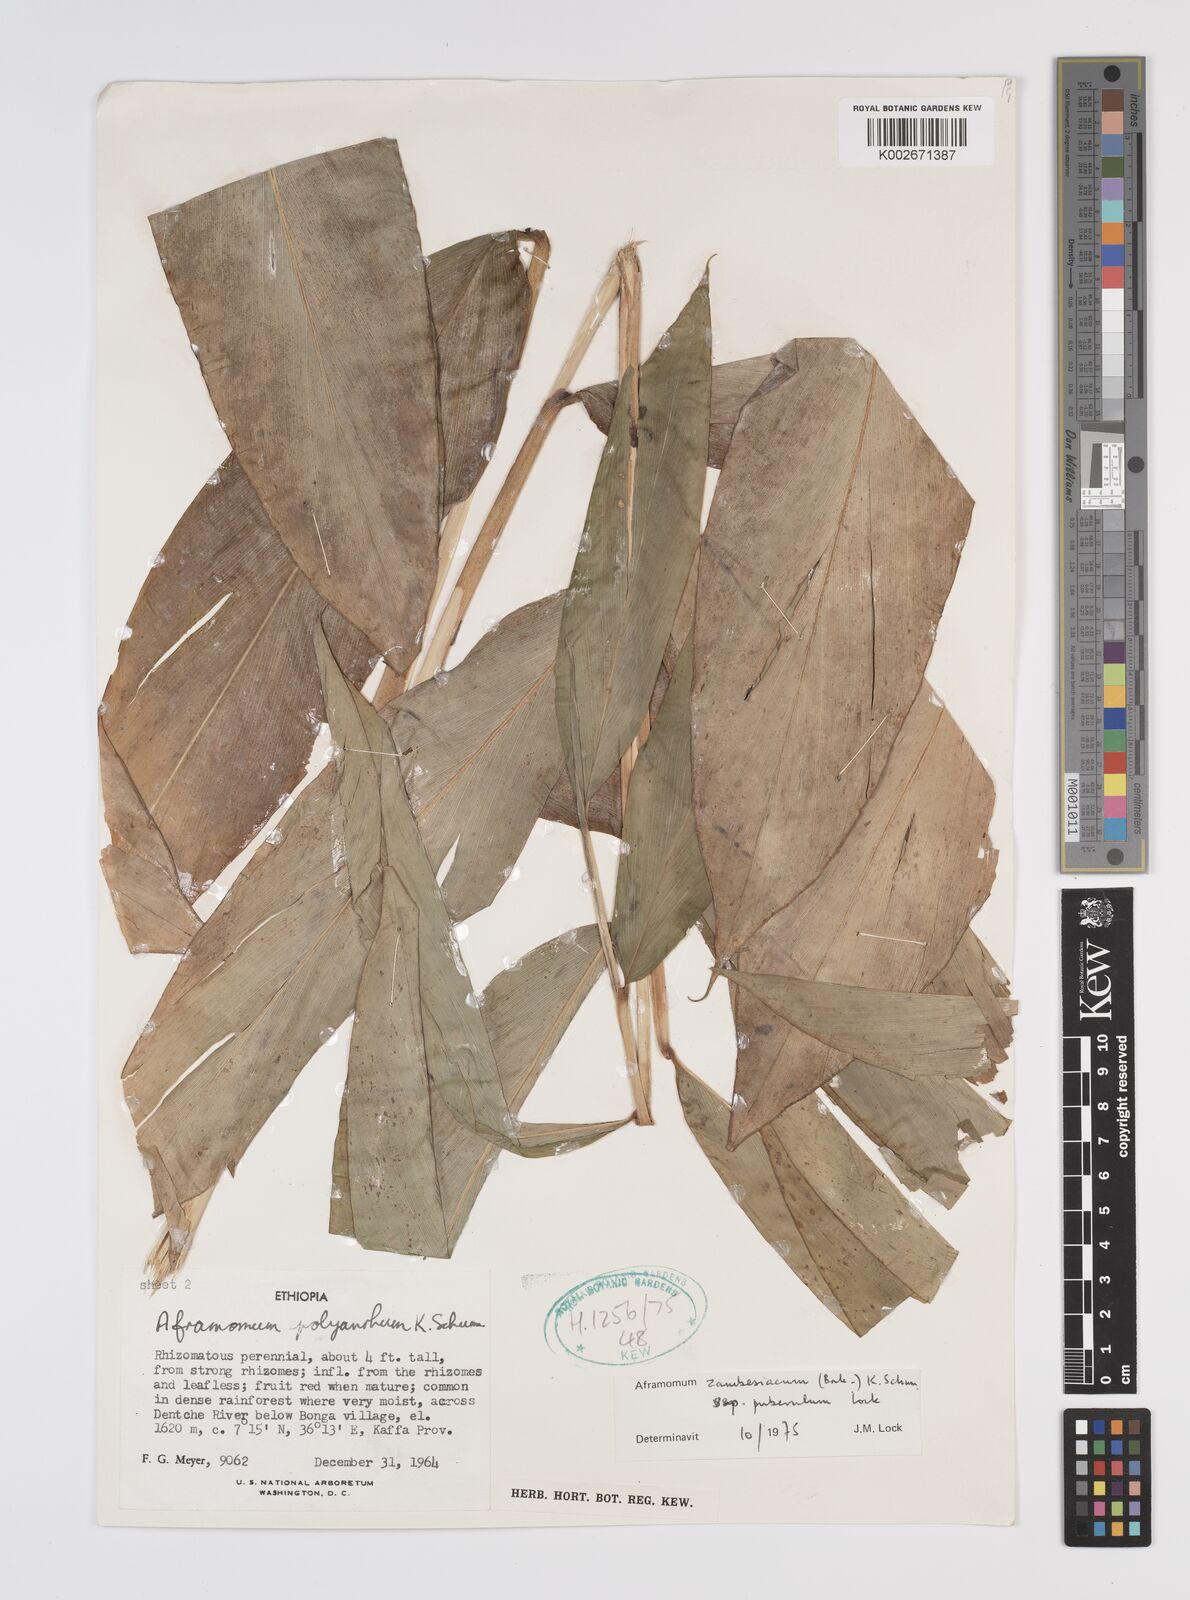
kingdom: Plantae
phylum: Tracheophyta
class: Liliopsida
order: Zingiberales
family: Zingiberaceae
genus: Aframomum
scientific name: Aframomum zambesiacum
